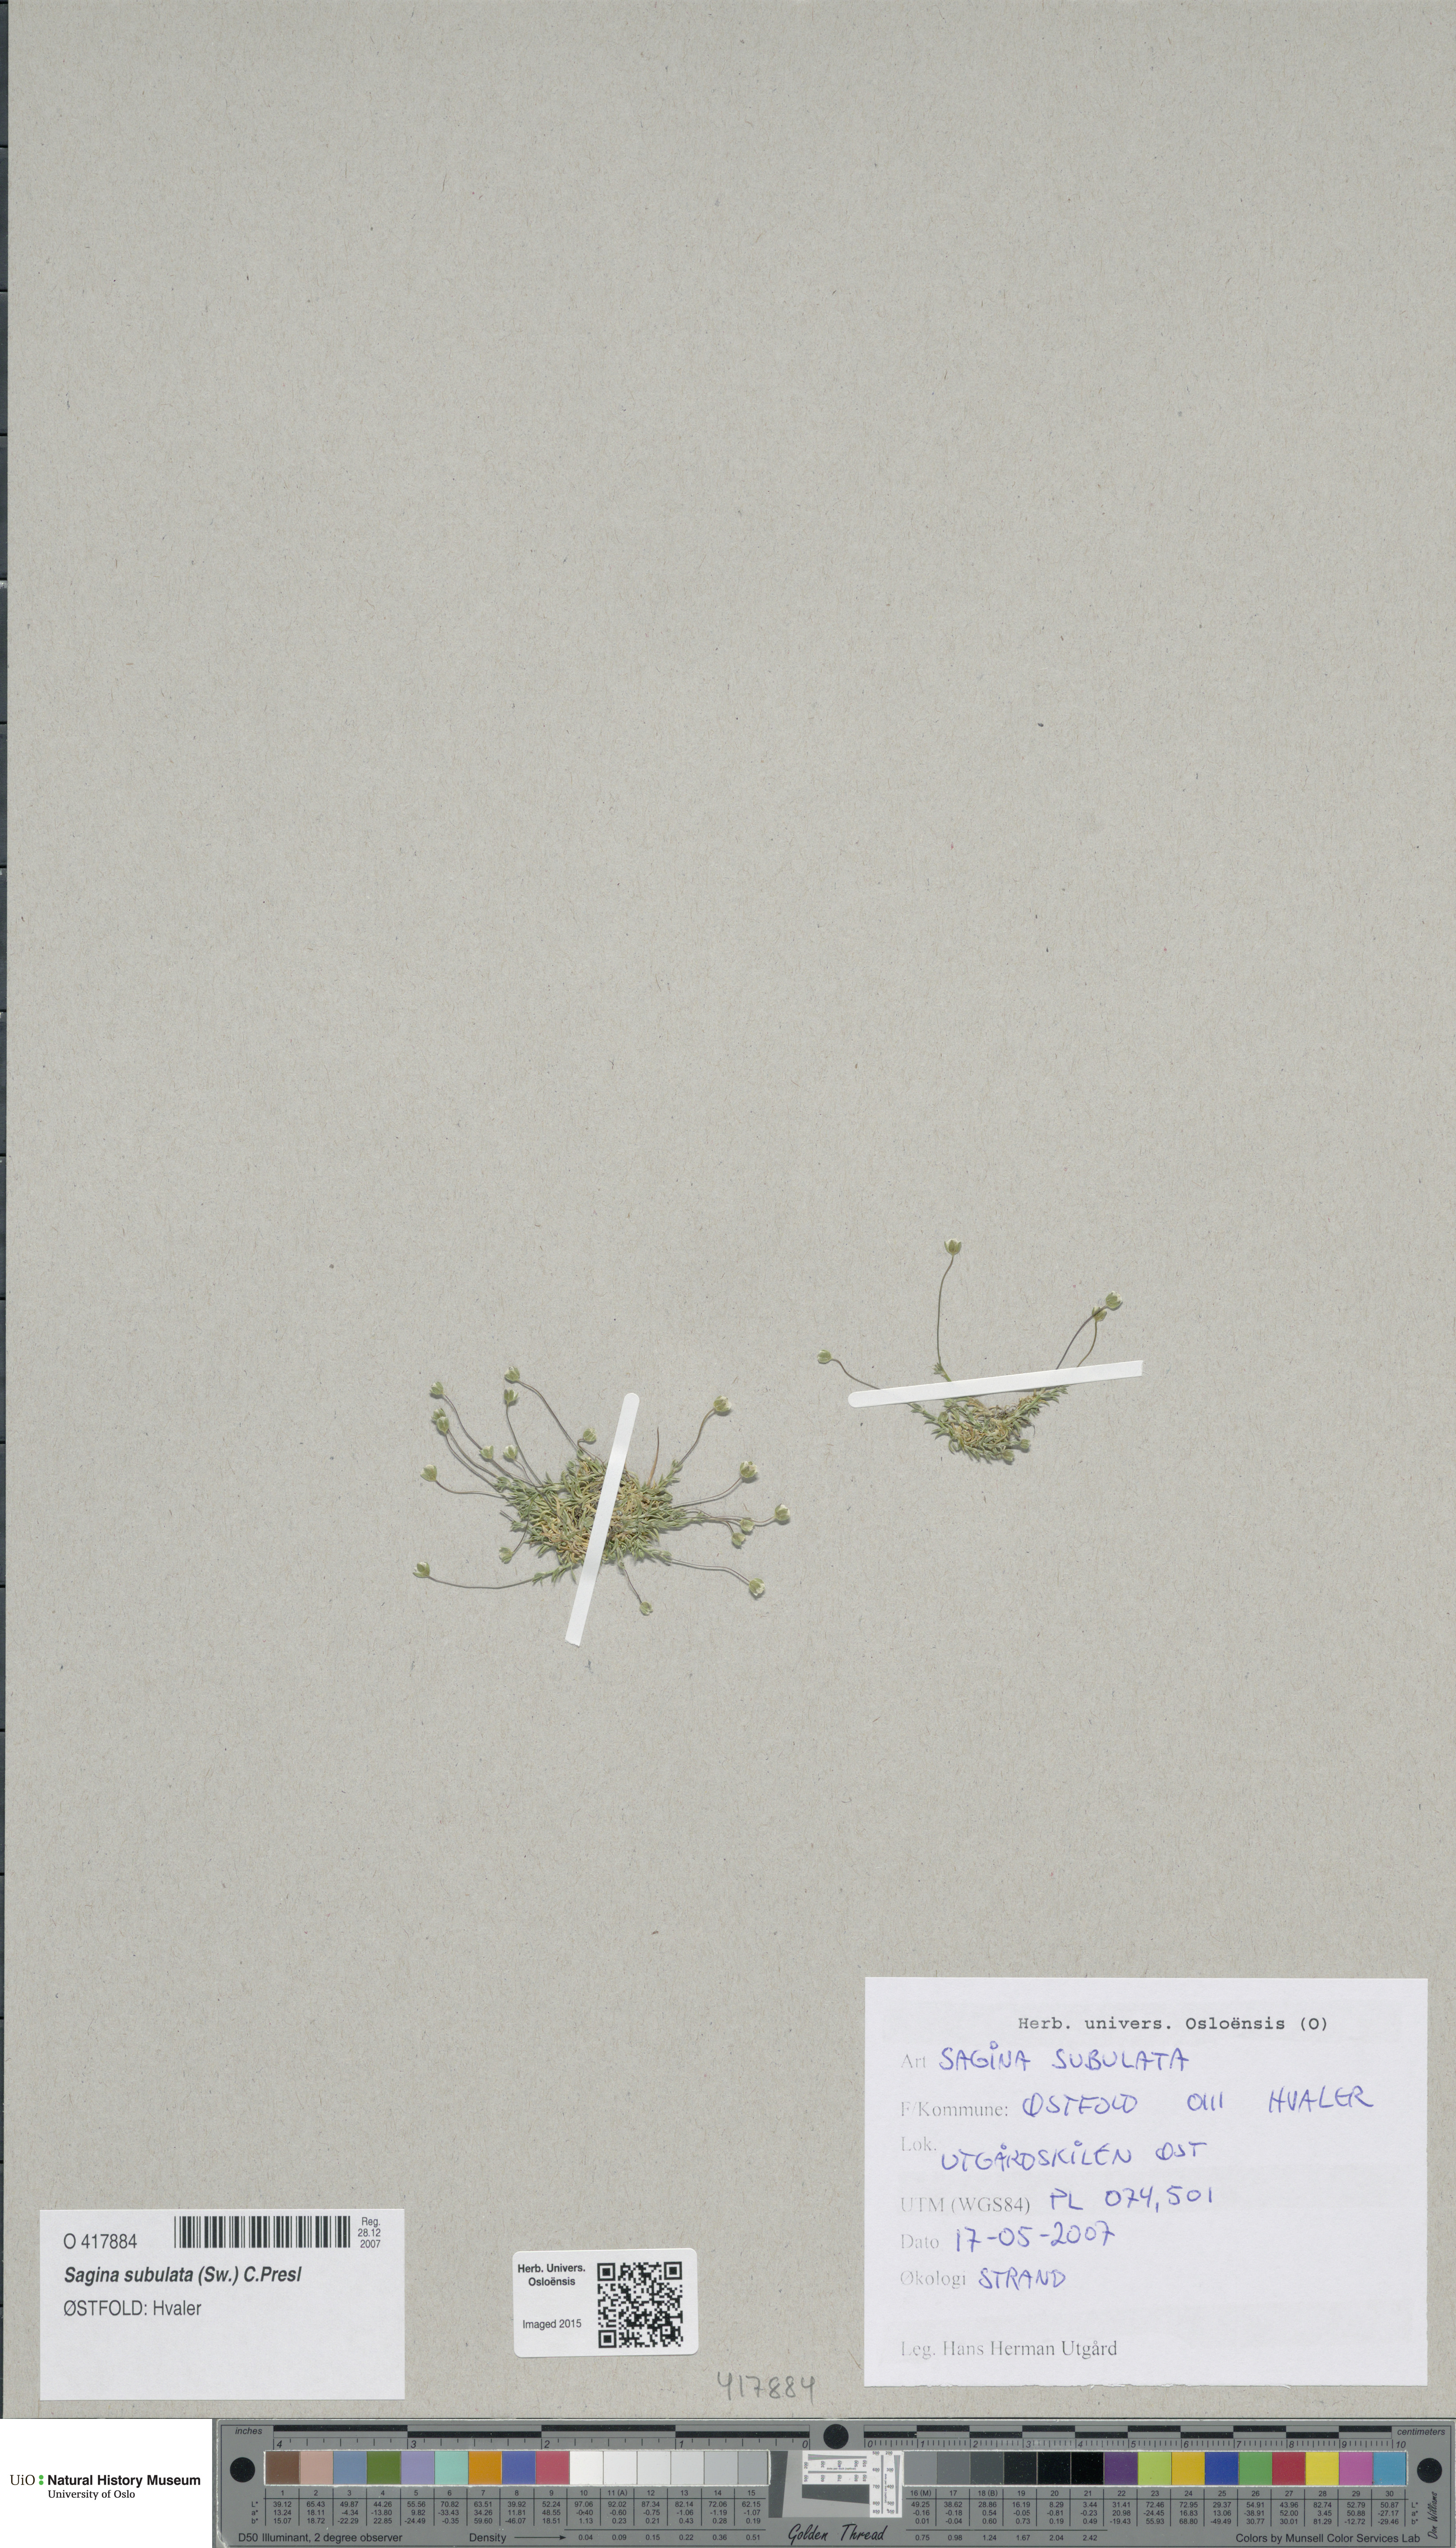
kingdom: Plantae
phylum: Tracheophyta
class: Magnoliopsida
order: Caryophyllales
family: Caryophyllaceae
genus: Sagina
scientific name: Sagina alexandrae
